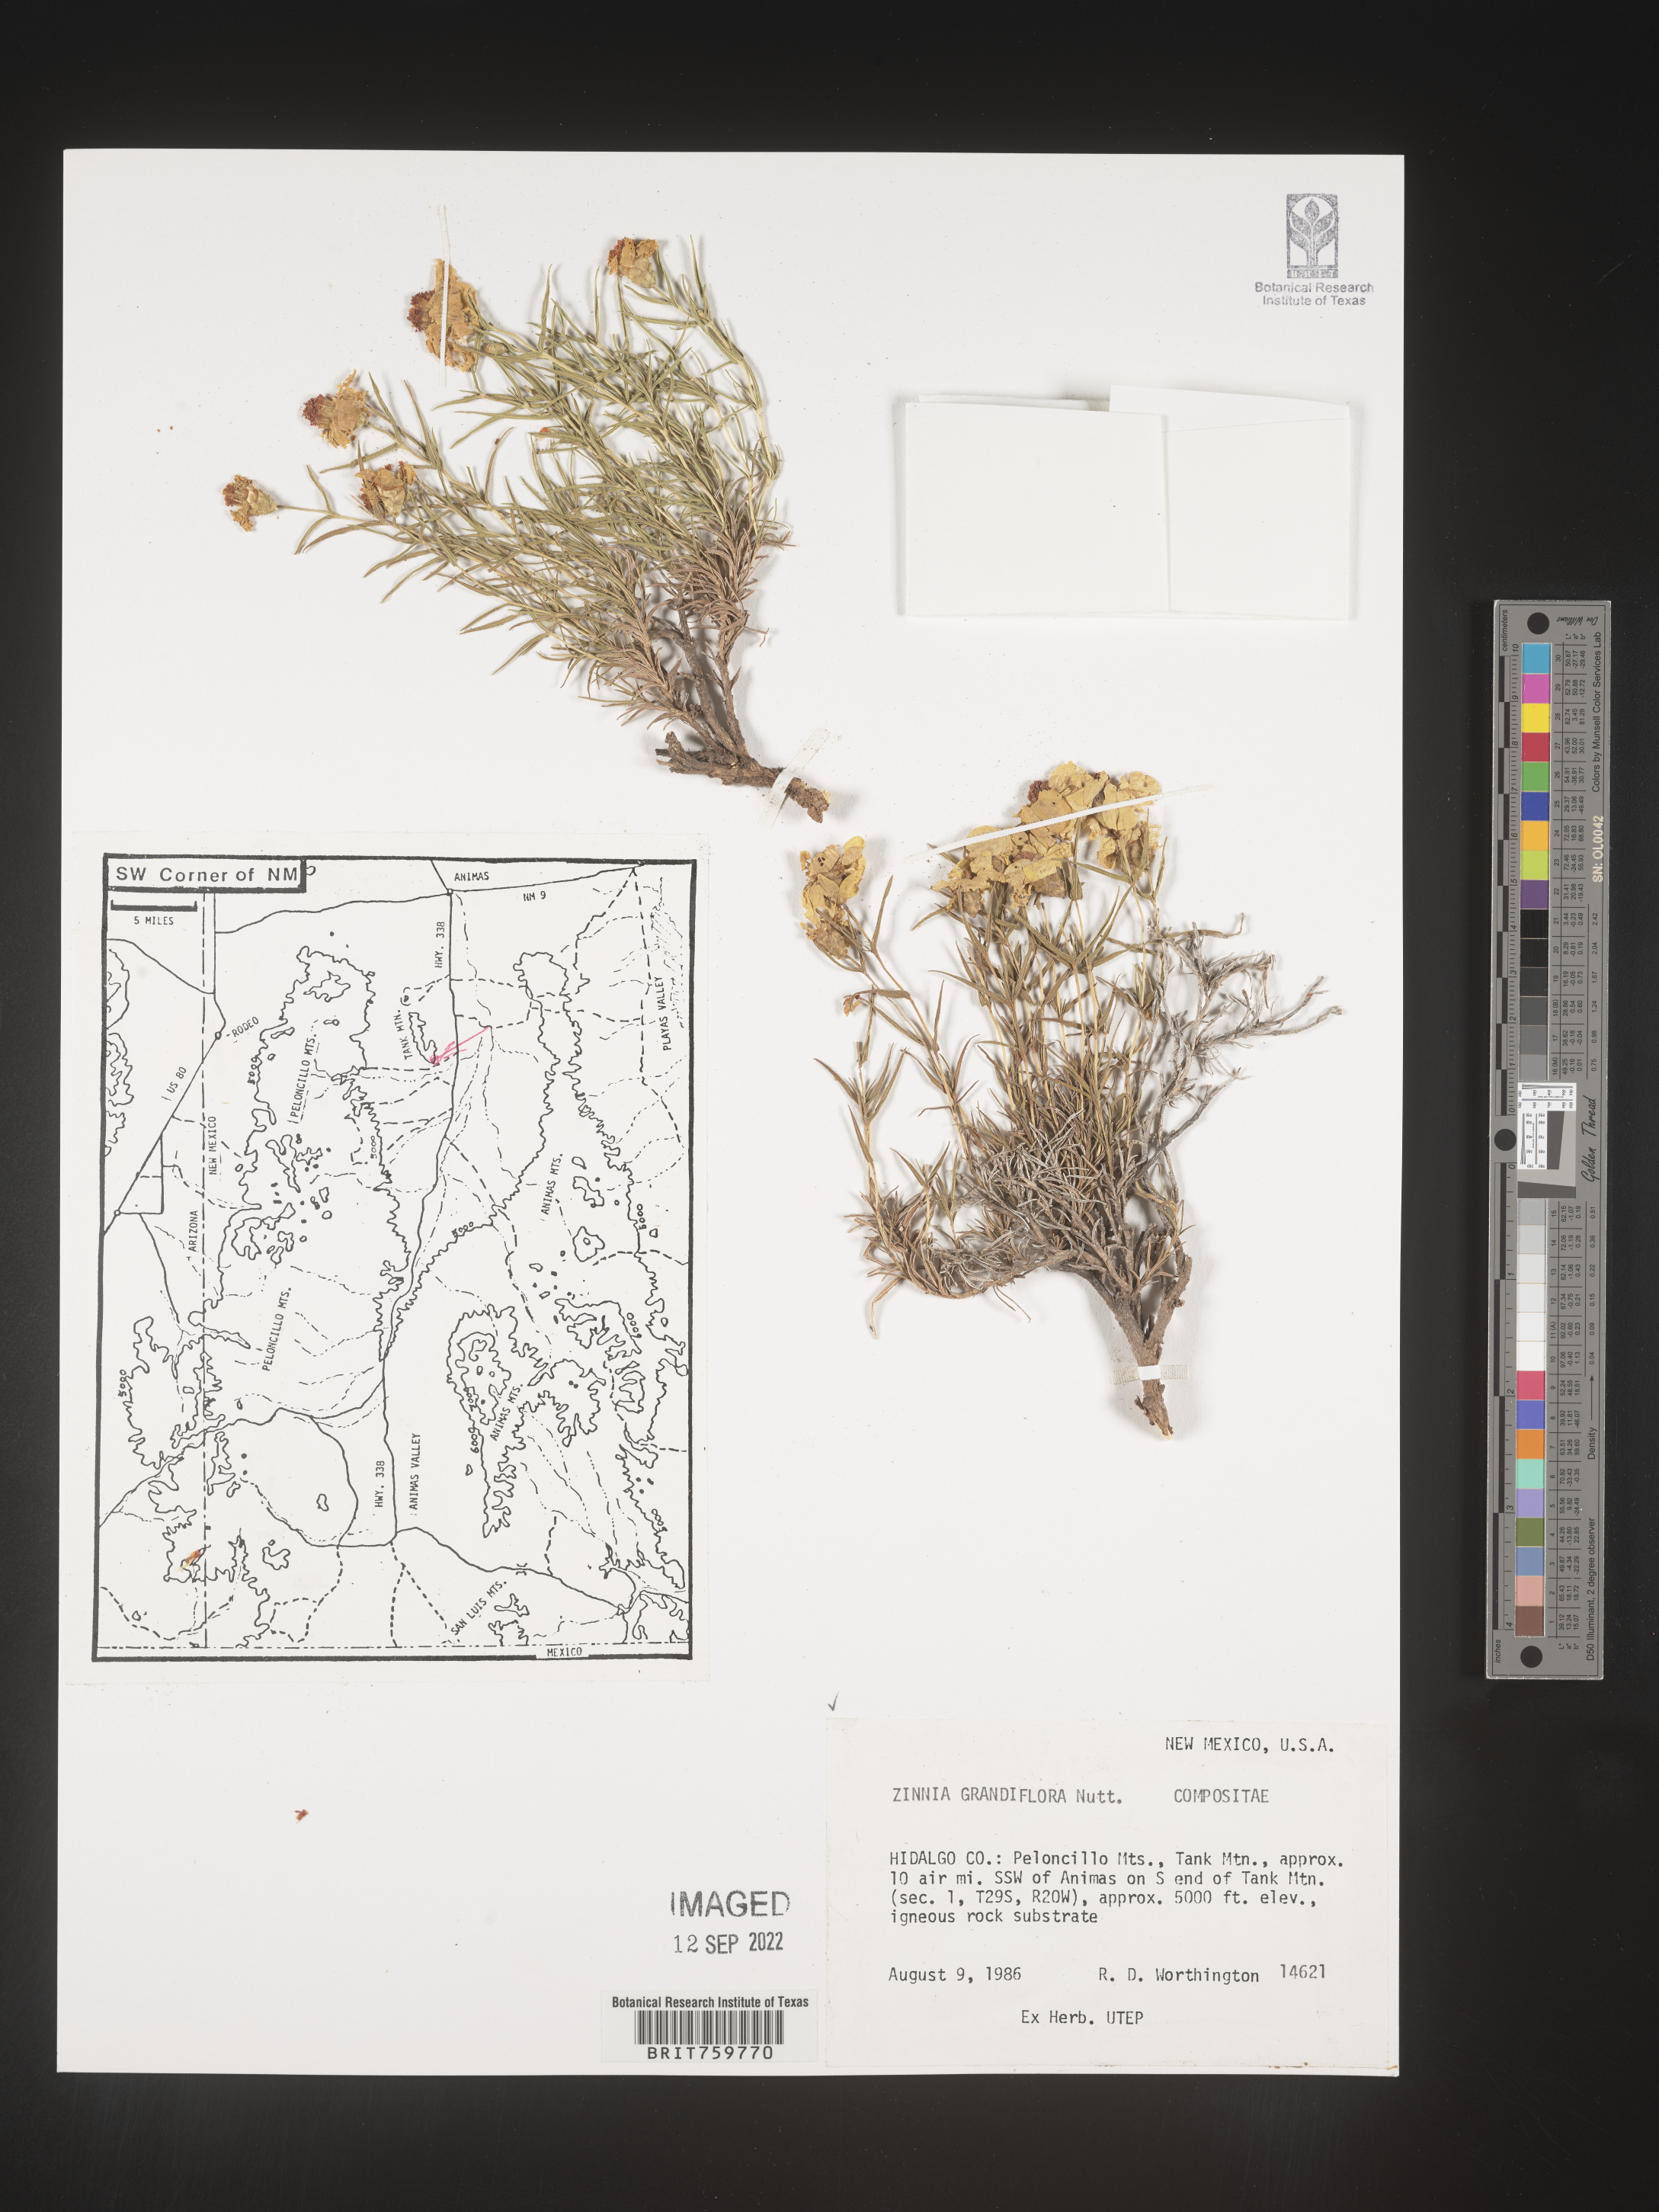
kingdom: Plantae
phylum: Tracheophyta
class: Magnoliopsida
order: Asterales
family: Asteraceae
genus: Zinnia
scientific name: Zinnia grandiflora
